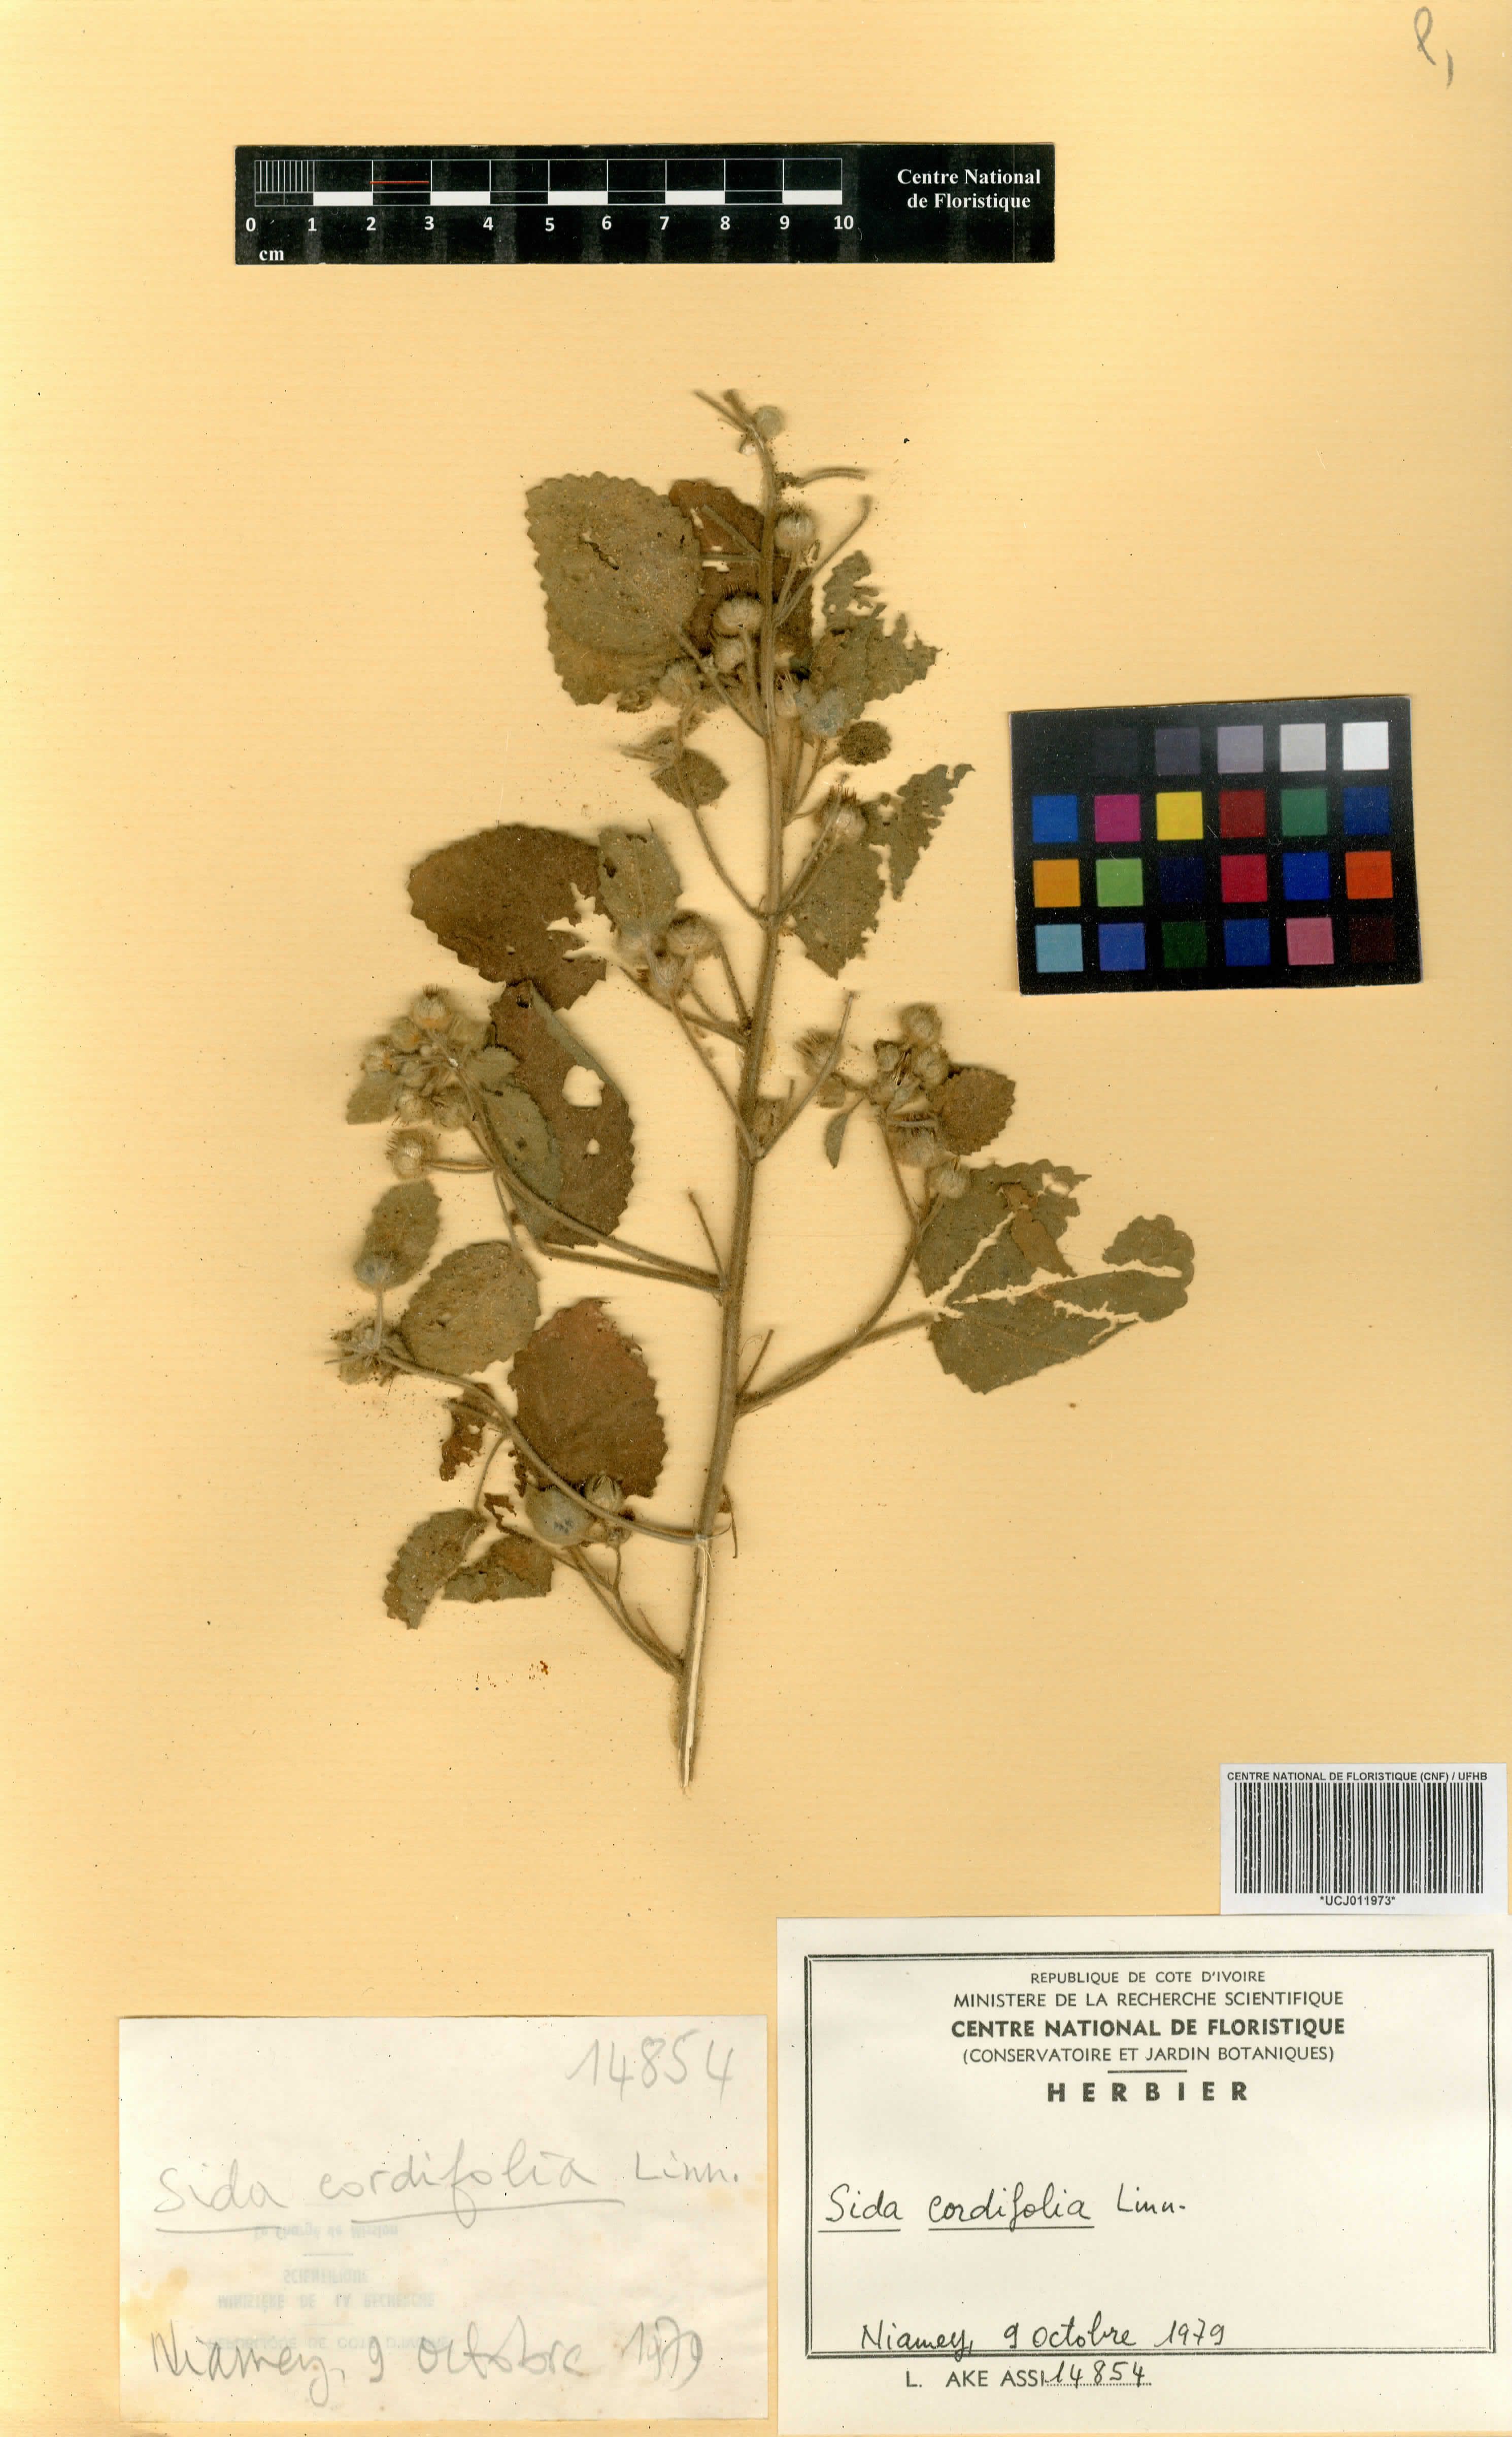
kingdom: Plantae
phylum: Tracheophyta
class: Magnoliopsida
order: Malvales
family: Malvaceae
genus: Sida
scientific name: Sida cordifolia
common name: Ilima
